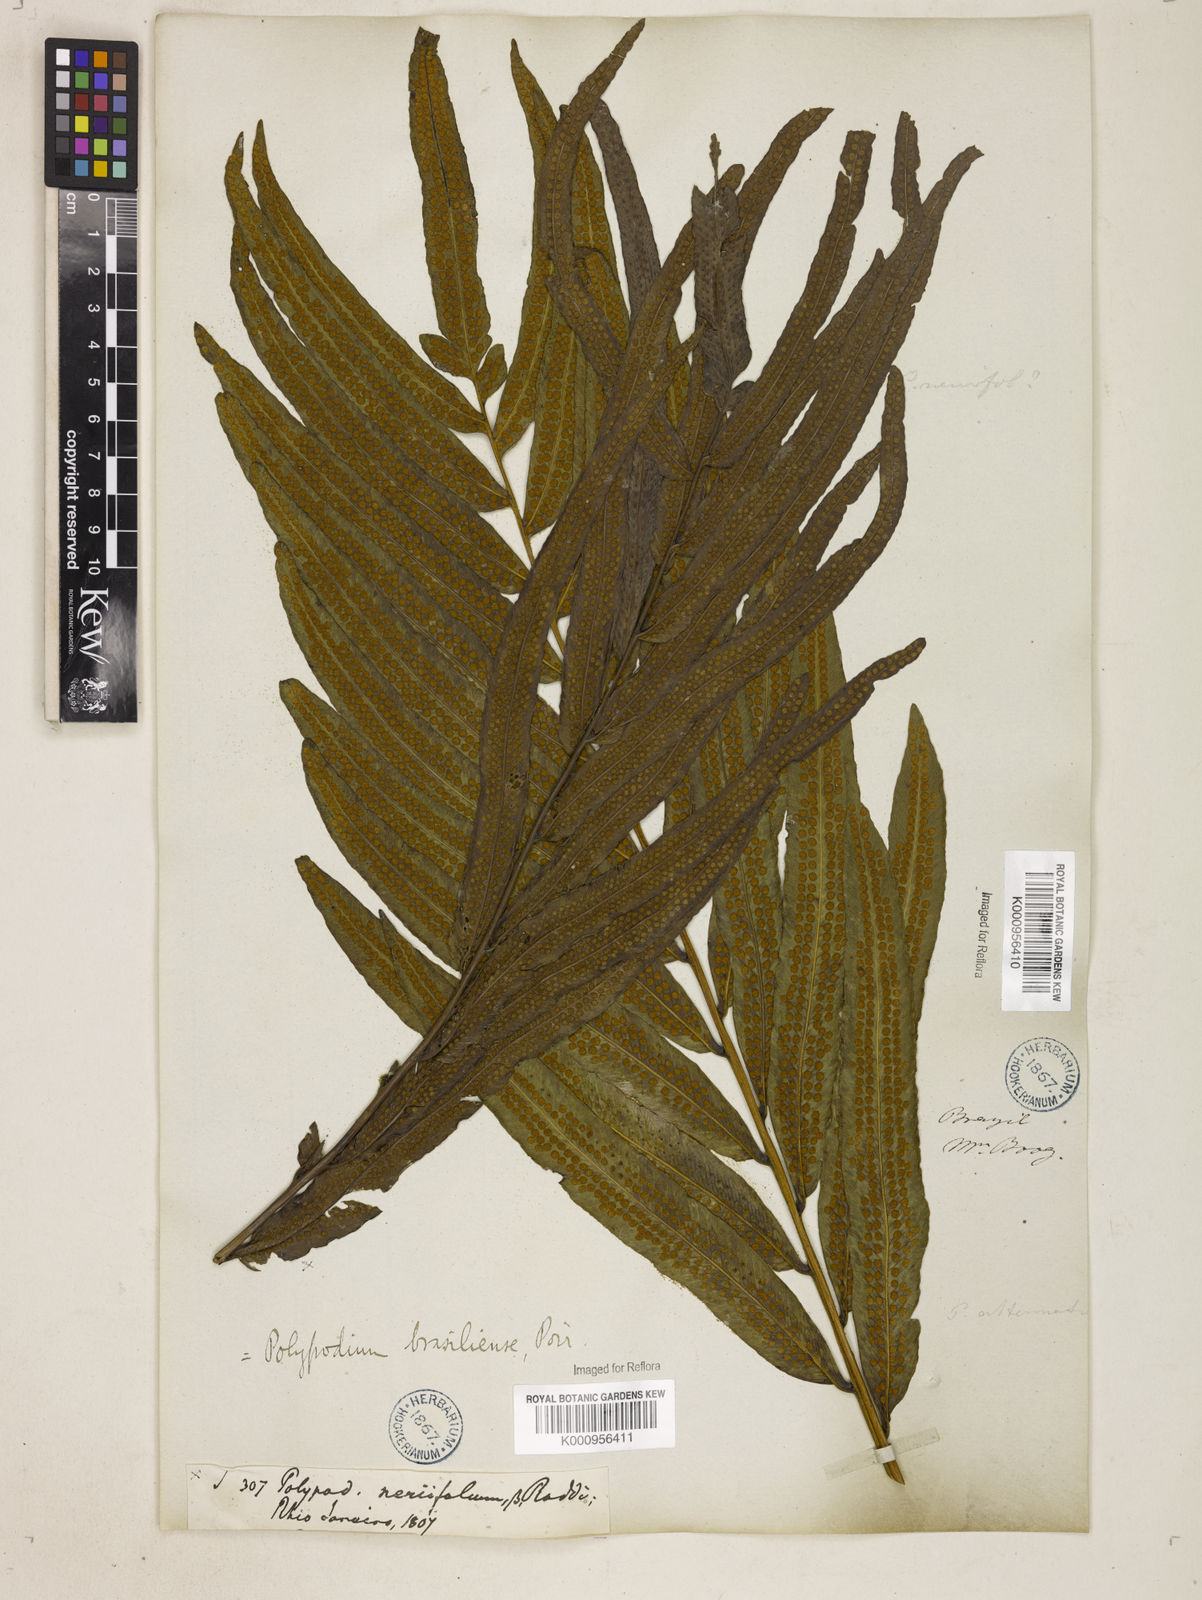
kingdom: Plantae
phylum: Tracheophyta
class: Polypodiopsida
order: Polypodiales
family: Polypodiaceae
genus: Serpocaulon
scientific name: Serpocaulon triseriale
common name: Angle-vein fern
